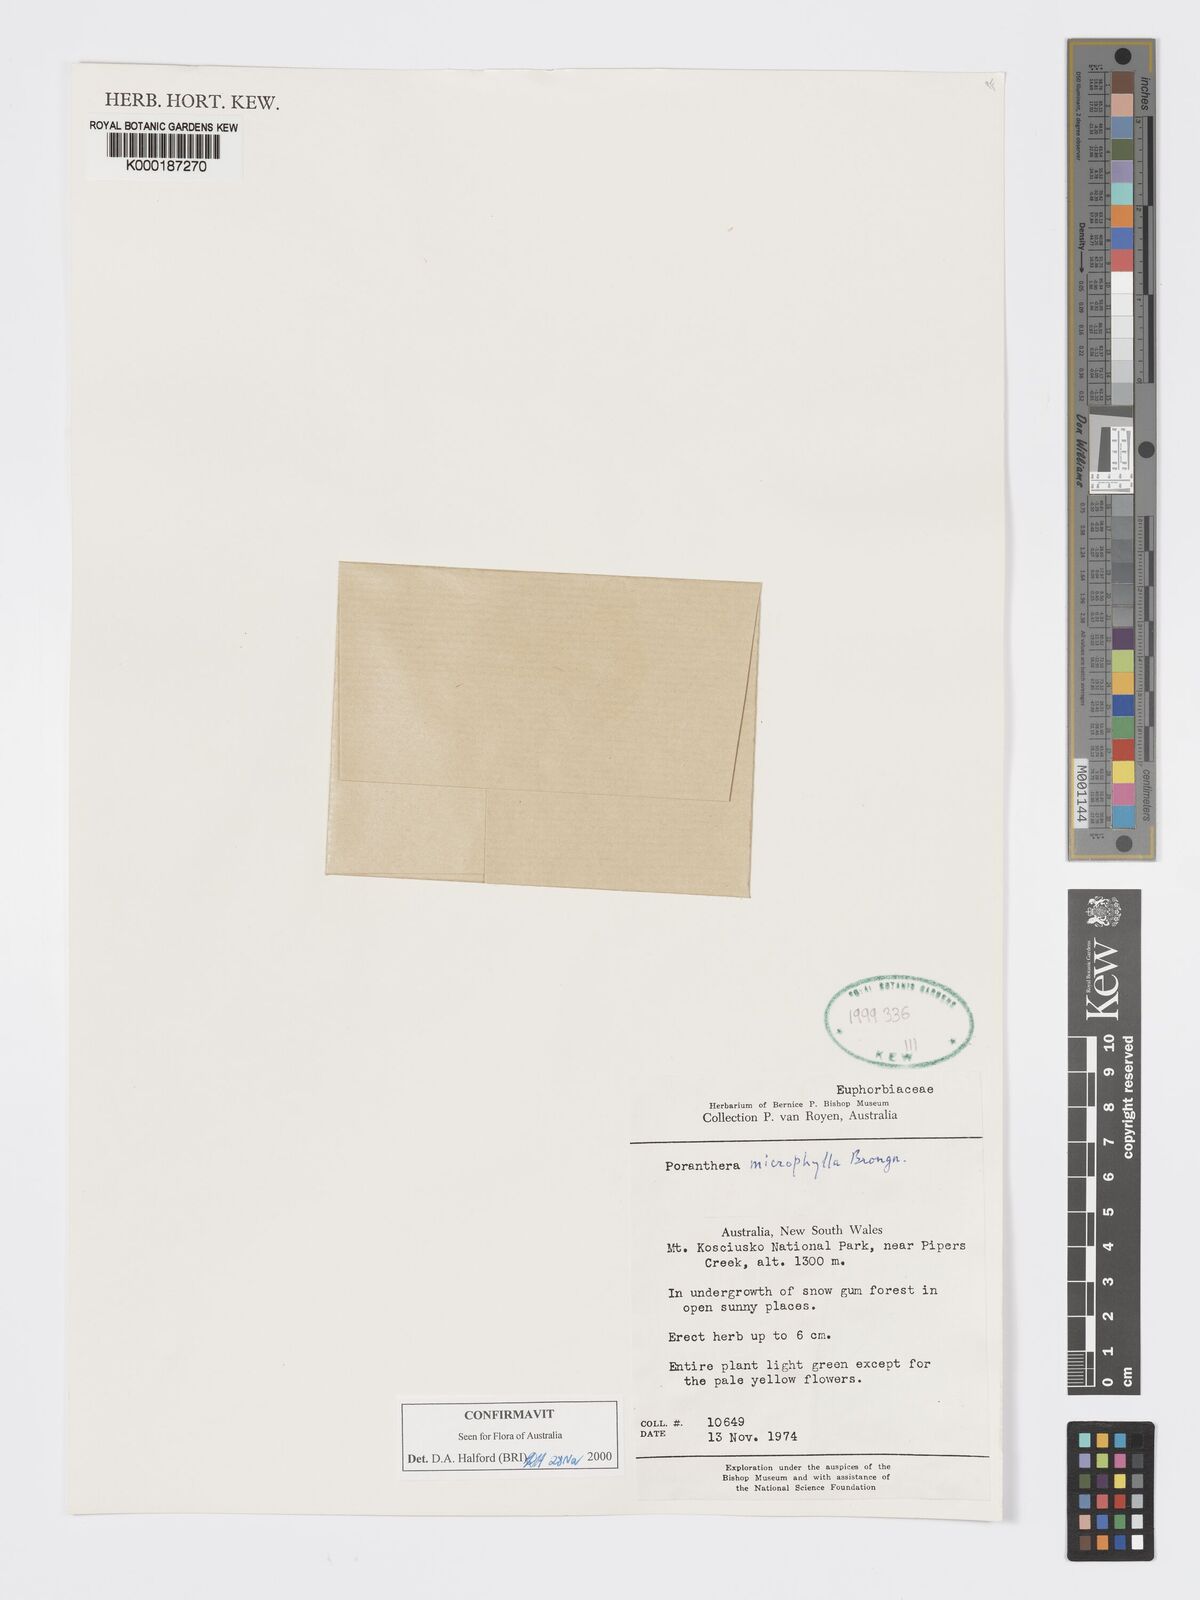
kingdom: Plantae
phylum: Tracheophyta
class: Magnoliopsida
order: Malpighiales
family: Phyllanthaceae
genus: Poranthera
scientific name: Poranthera microphylla
